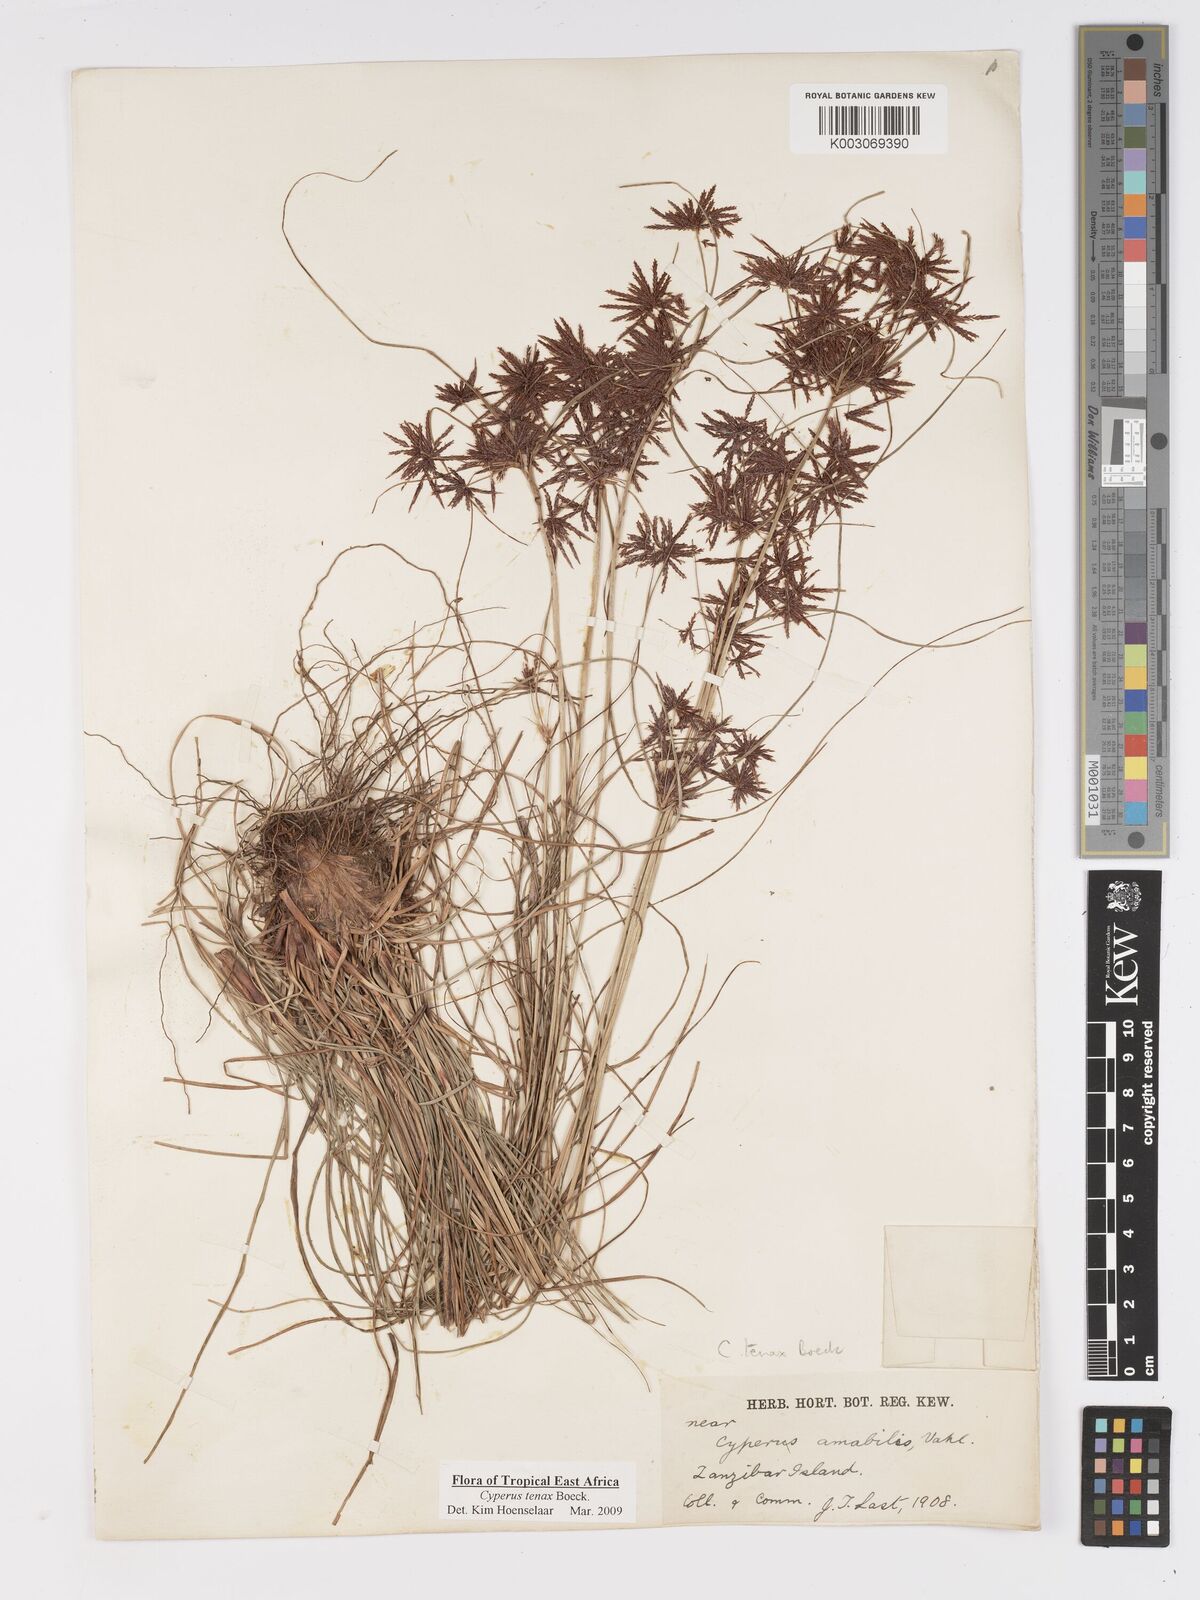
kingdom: Plantae
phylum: Tracheophyta
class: Liliopsida
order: Poales
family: Cyperaceae
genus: Cyperus
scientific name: Cyperus tenax
